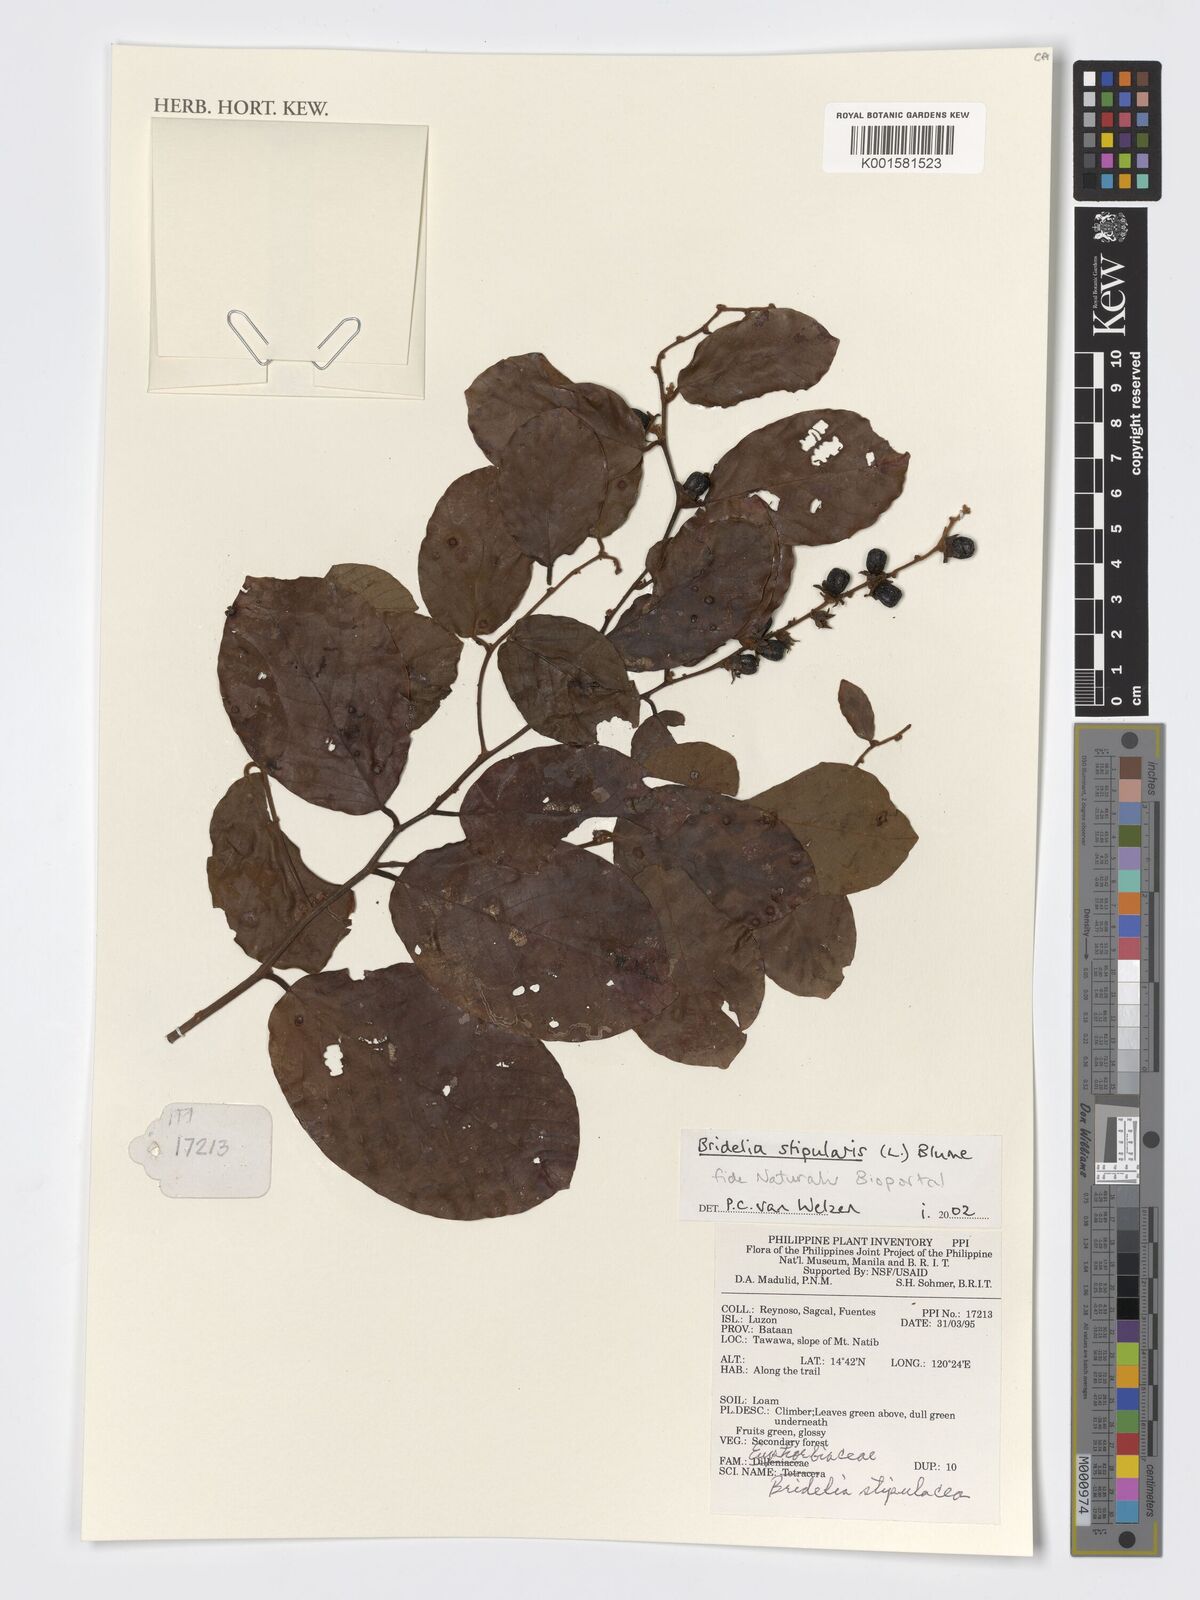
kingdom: Plantae
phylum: Tracheophyta
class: Magnoliopsida
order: Malpighiales
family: Phyllanthaceae
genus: Bridelia
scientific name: Bridelia stipularis
